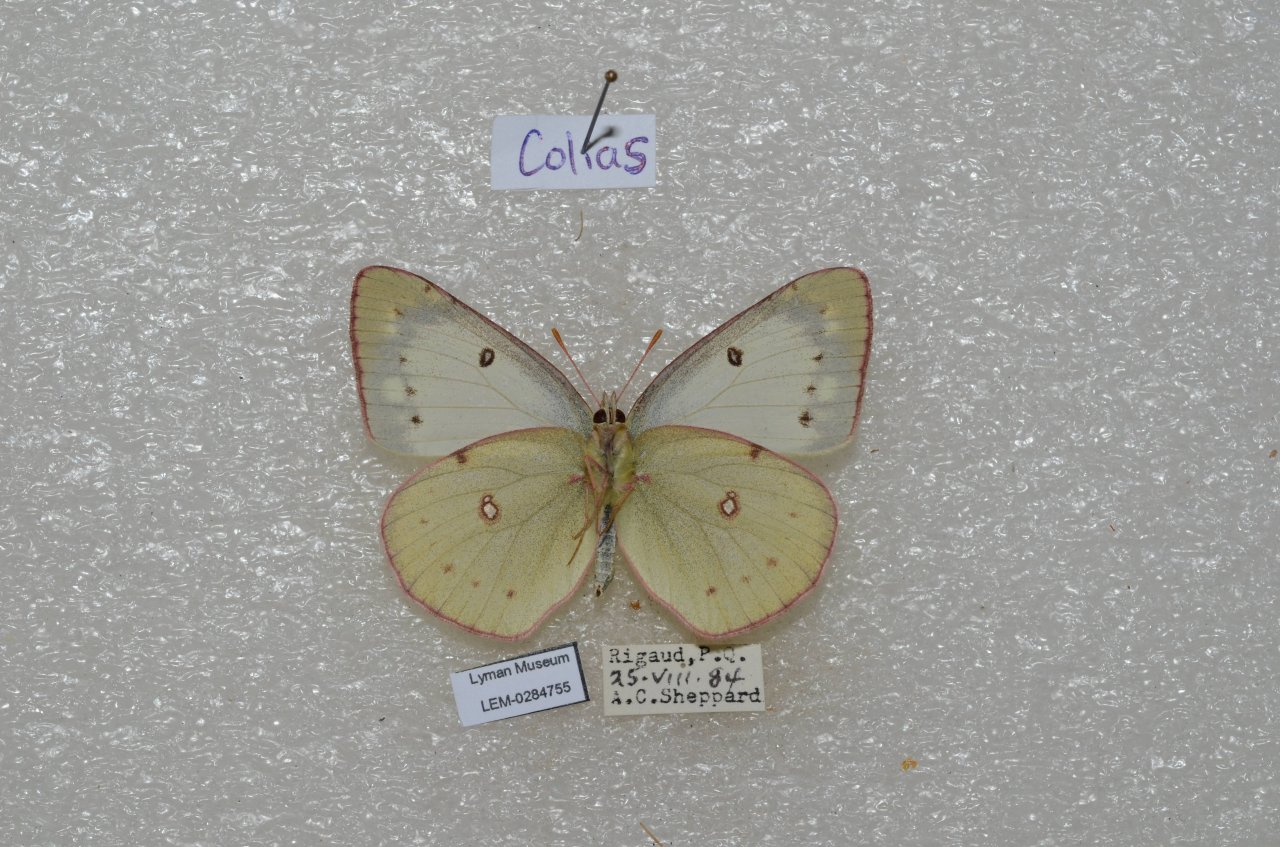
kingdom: Animalia
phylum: Arthropoda
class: Insecta
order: Lepidoptera
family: Pieridae
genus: Colias
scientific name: Colias
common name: Clouded Yellows
